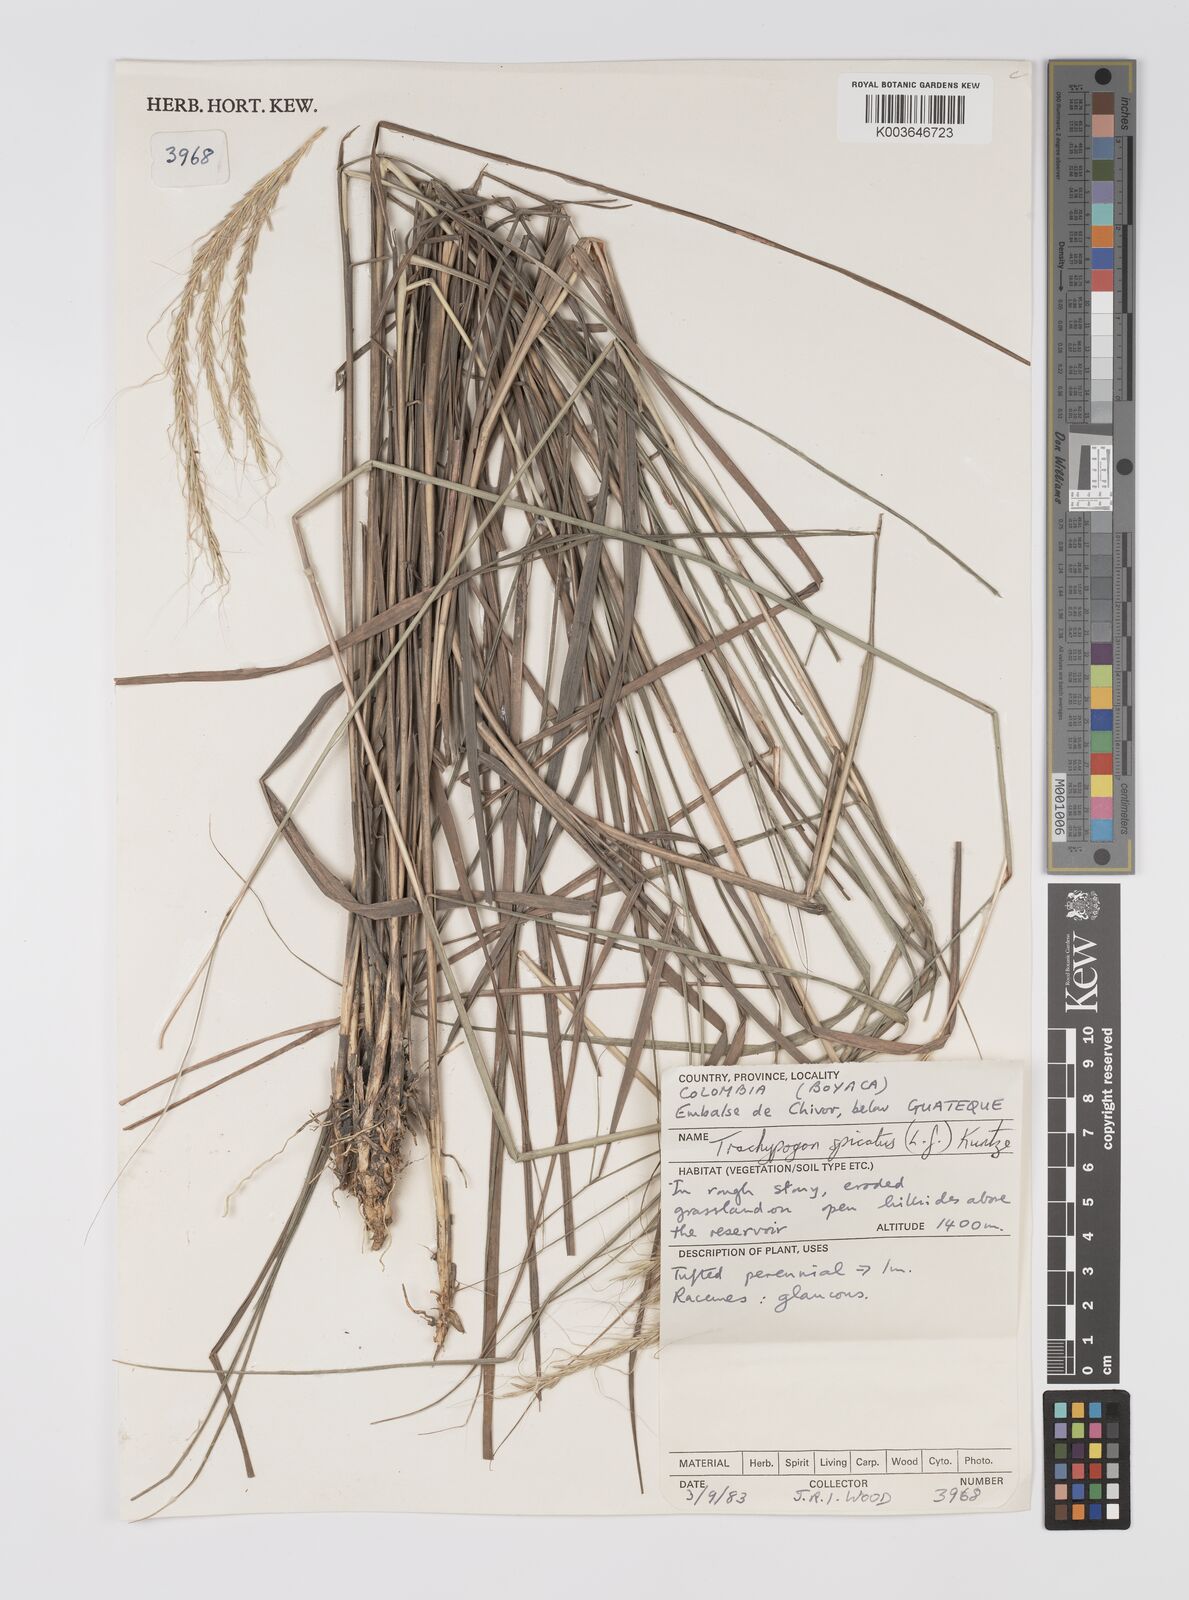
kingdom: Plantae
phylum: Tracheophyta
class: Liliopsida
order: Poales
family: Poaceae
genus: Trachypogon
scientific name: Trachypogon spicatus
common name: Crinkle-awn
